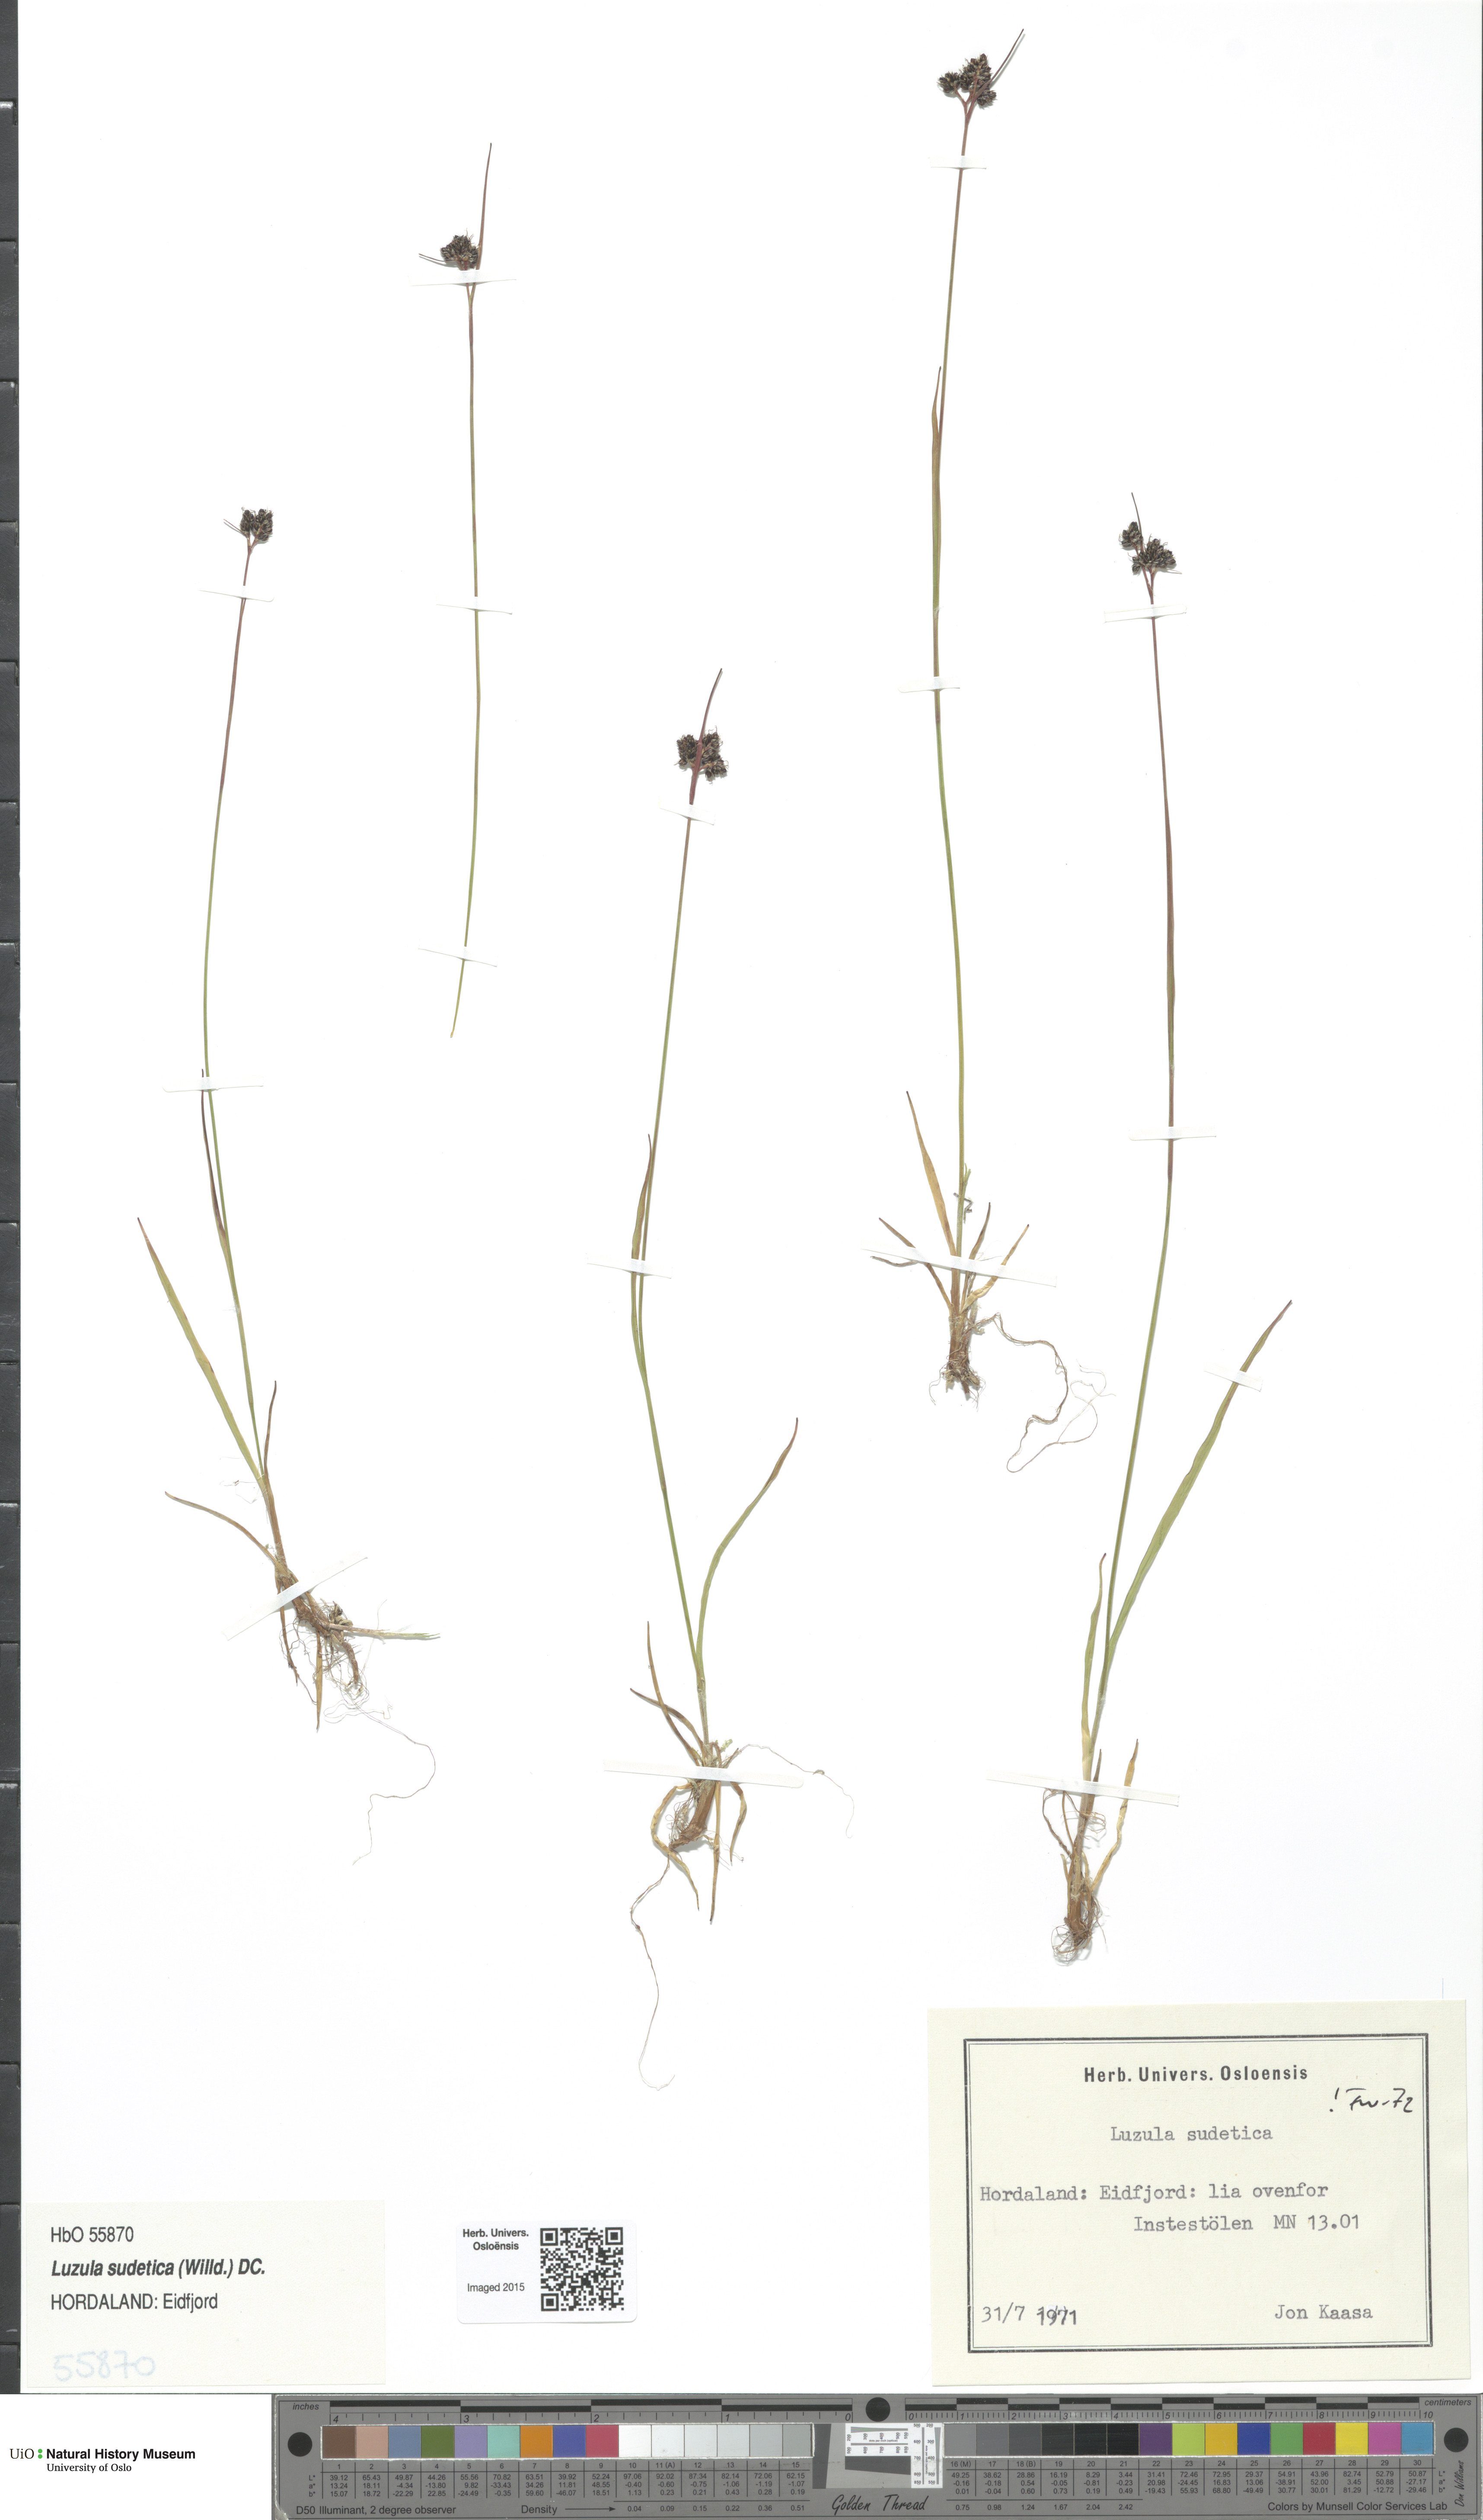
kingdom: Plantae
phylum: Tracheophyta
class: Liliopsida
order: Poales
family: Juncaceae
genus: Luzula
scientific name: Luzula sudetica
